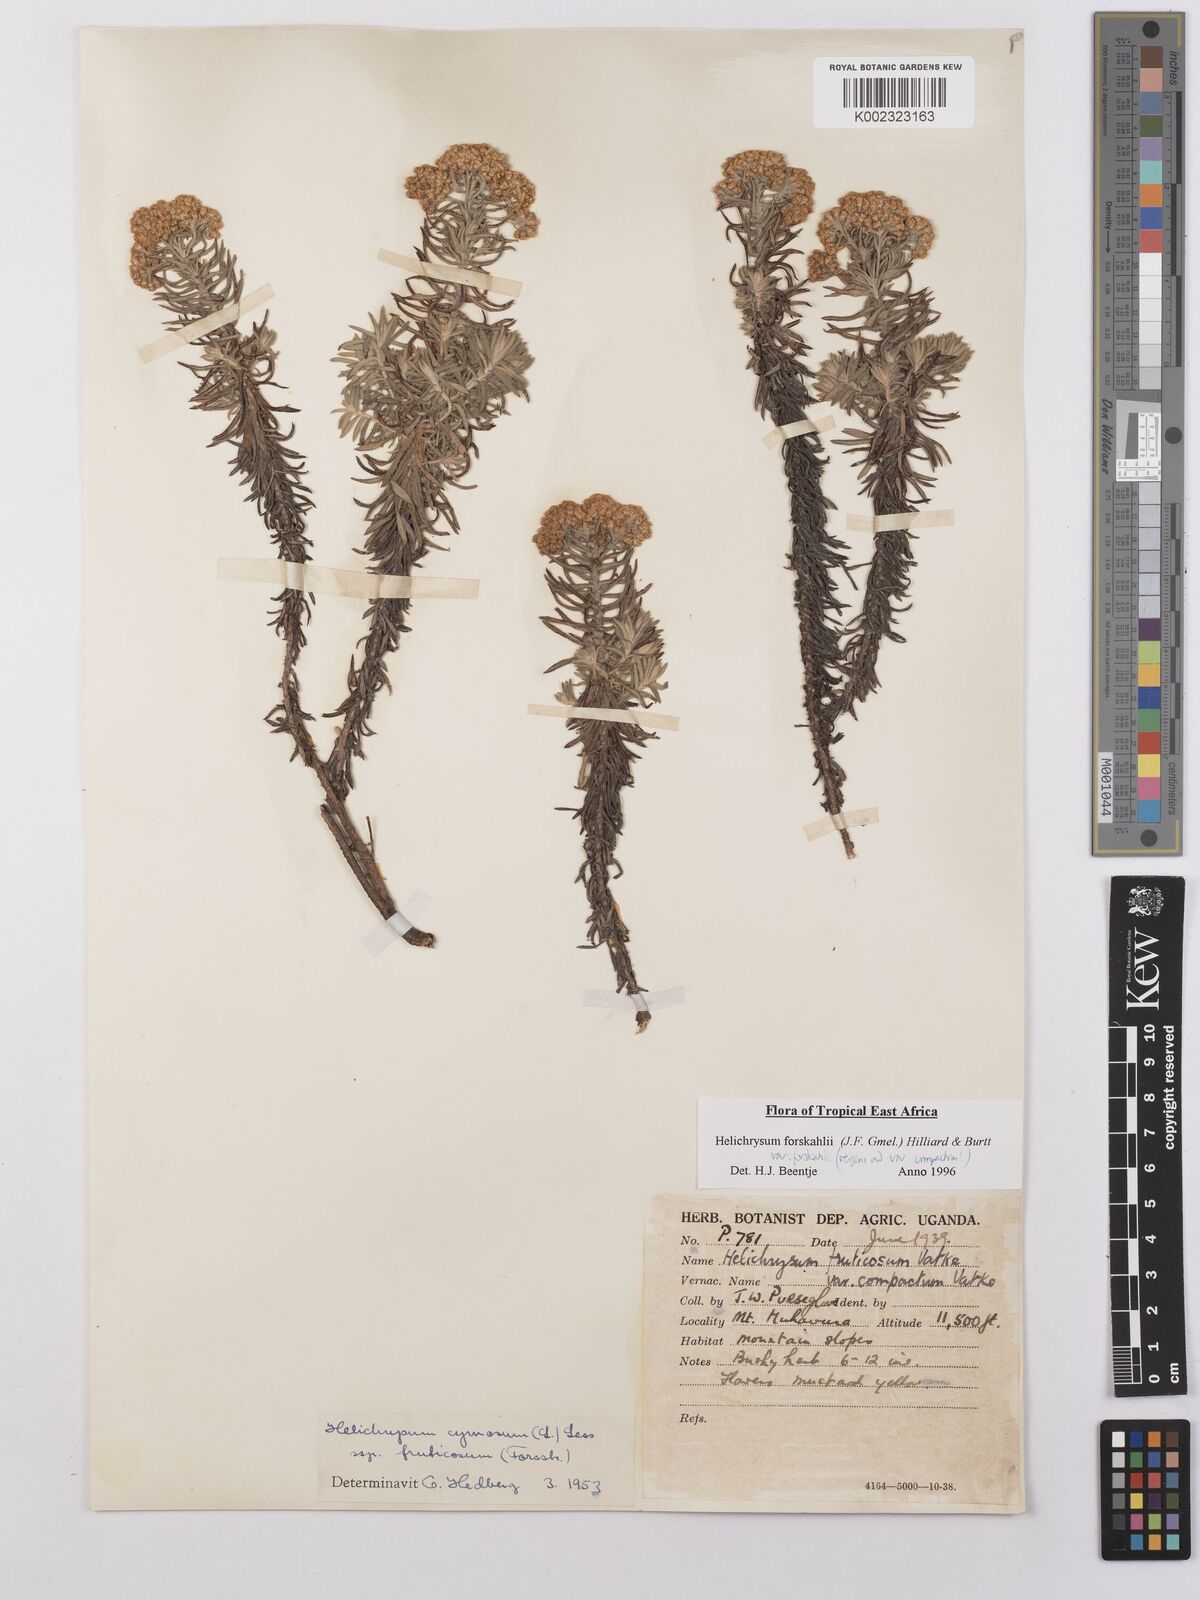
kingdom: Plantae
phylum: Tracheophyta
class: Magnoliopsida
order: Asterales
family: Asteraceae
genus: Helichrysum
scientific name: Helichrysum forskahlii
